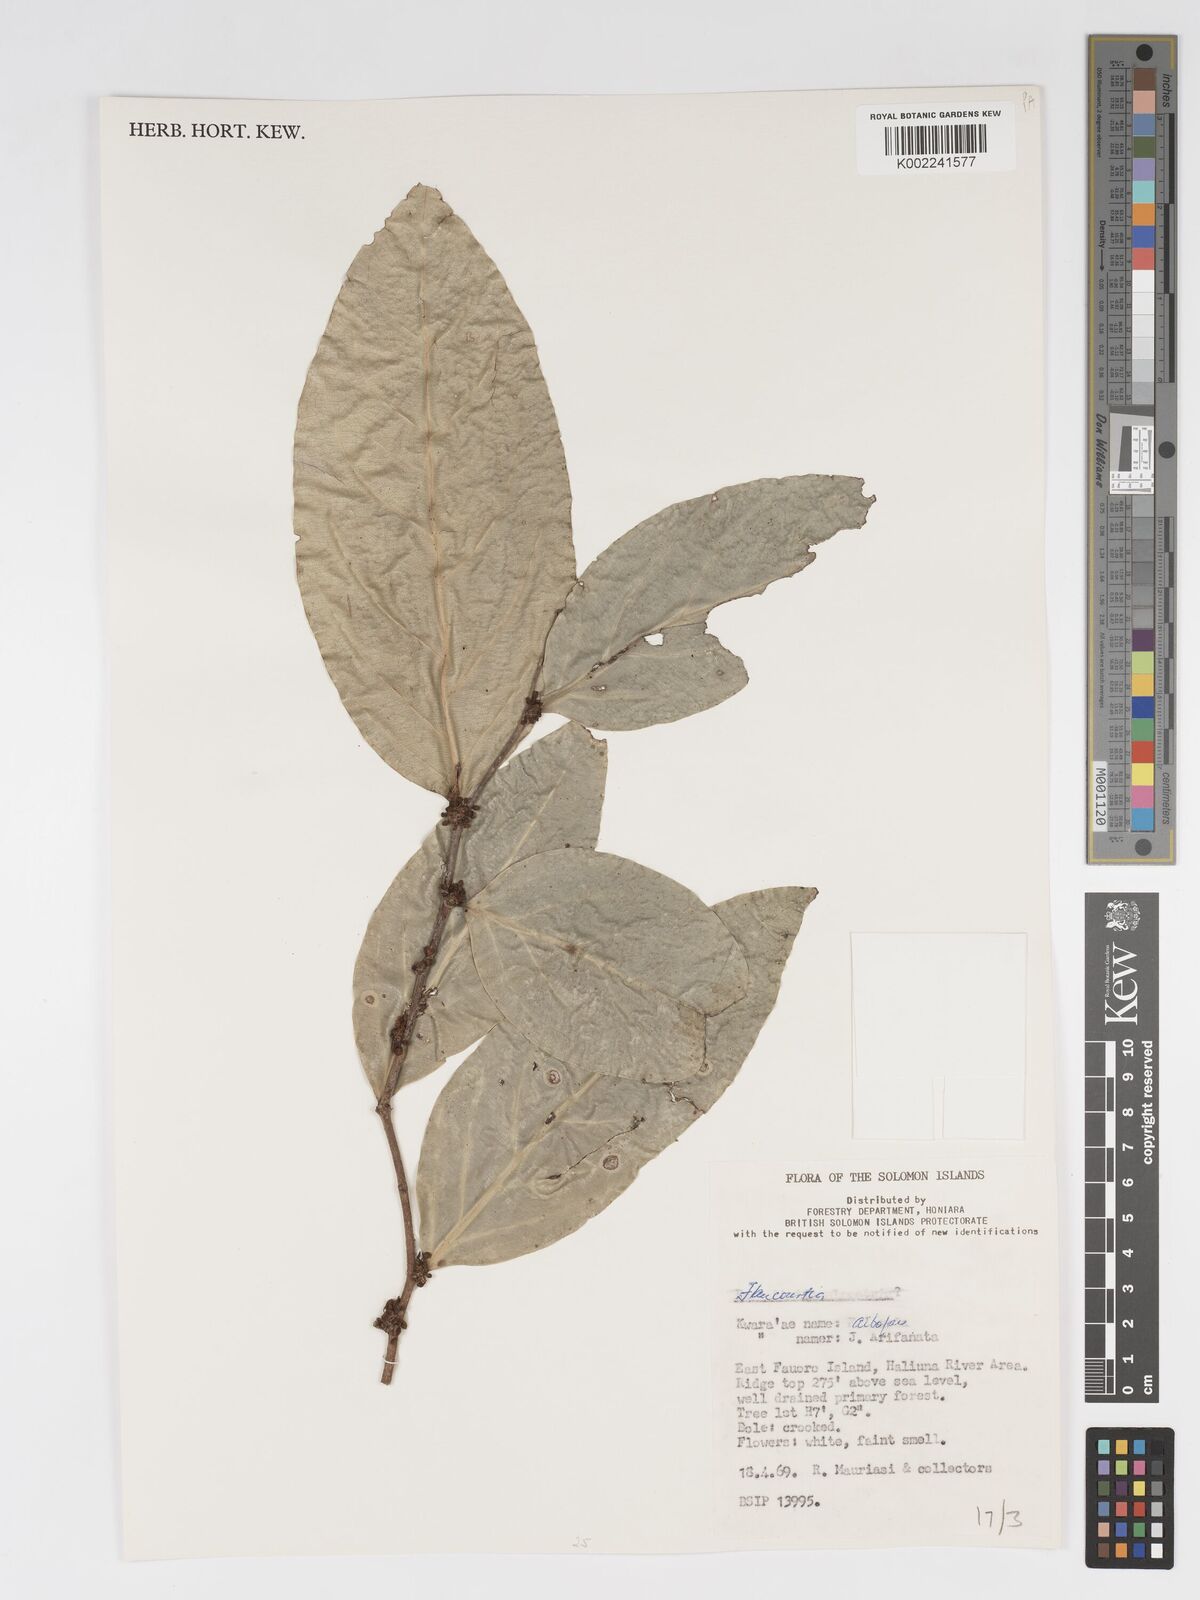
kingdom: Plantae
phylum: Tracheophyta
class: Magnoliopsida
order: Malpighiales
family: Salicaceae
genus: Flacourtia
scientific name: Flacourtia
